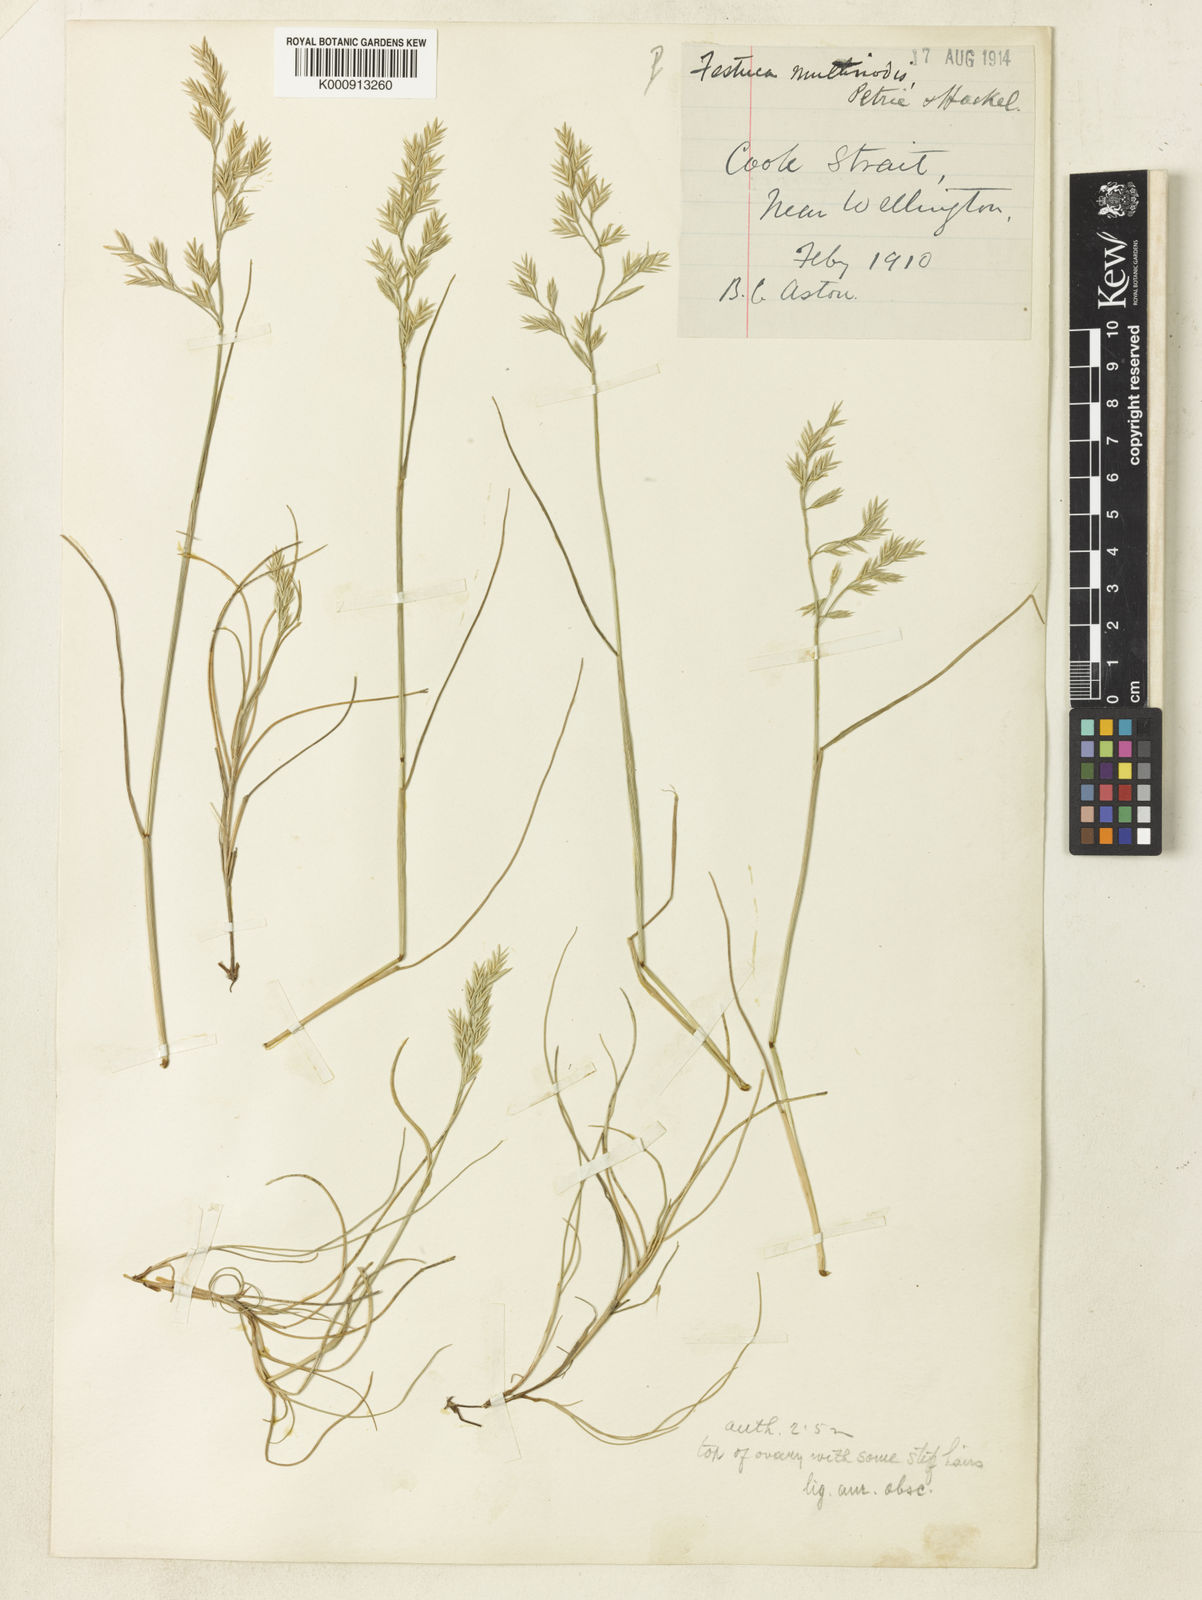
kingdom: Plantae
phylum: Tracheophyta
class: Liliopsida
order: Poales
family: Poaceae
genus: Festuca
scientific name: Festuca multinodis
